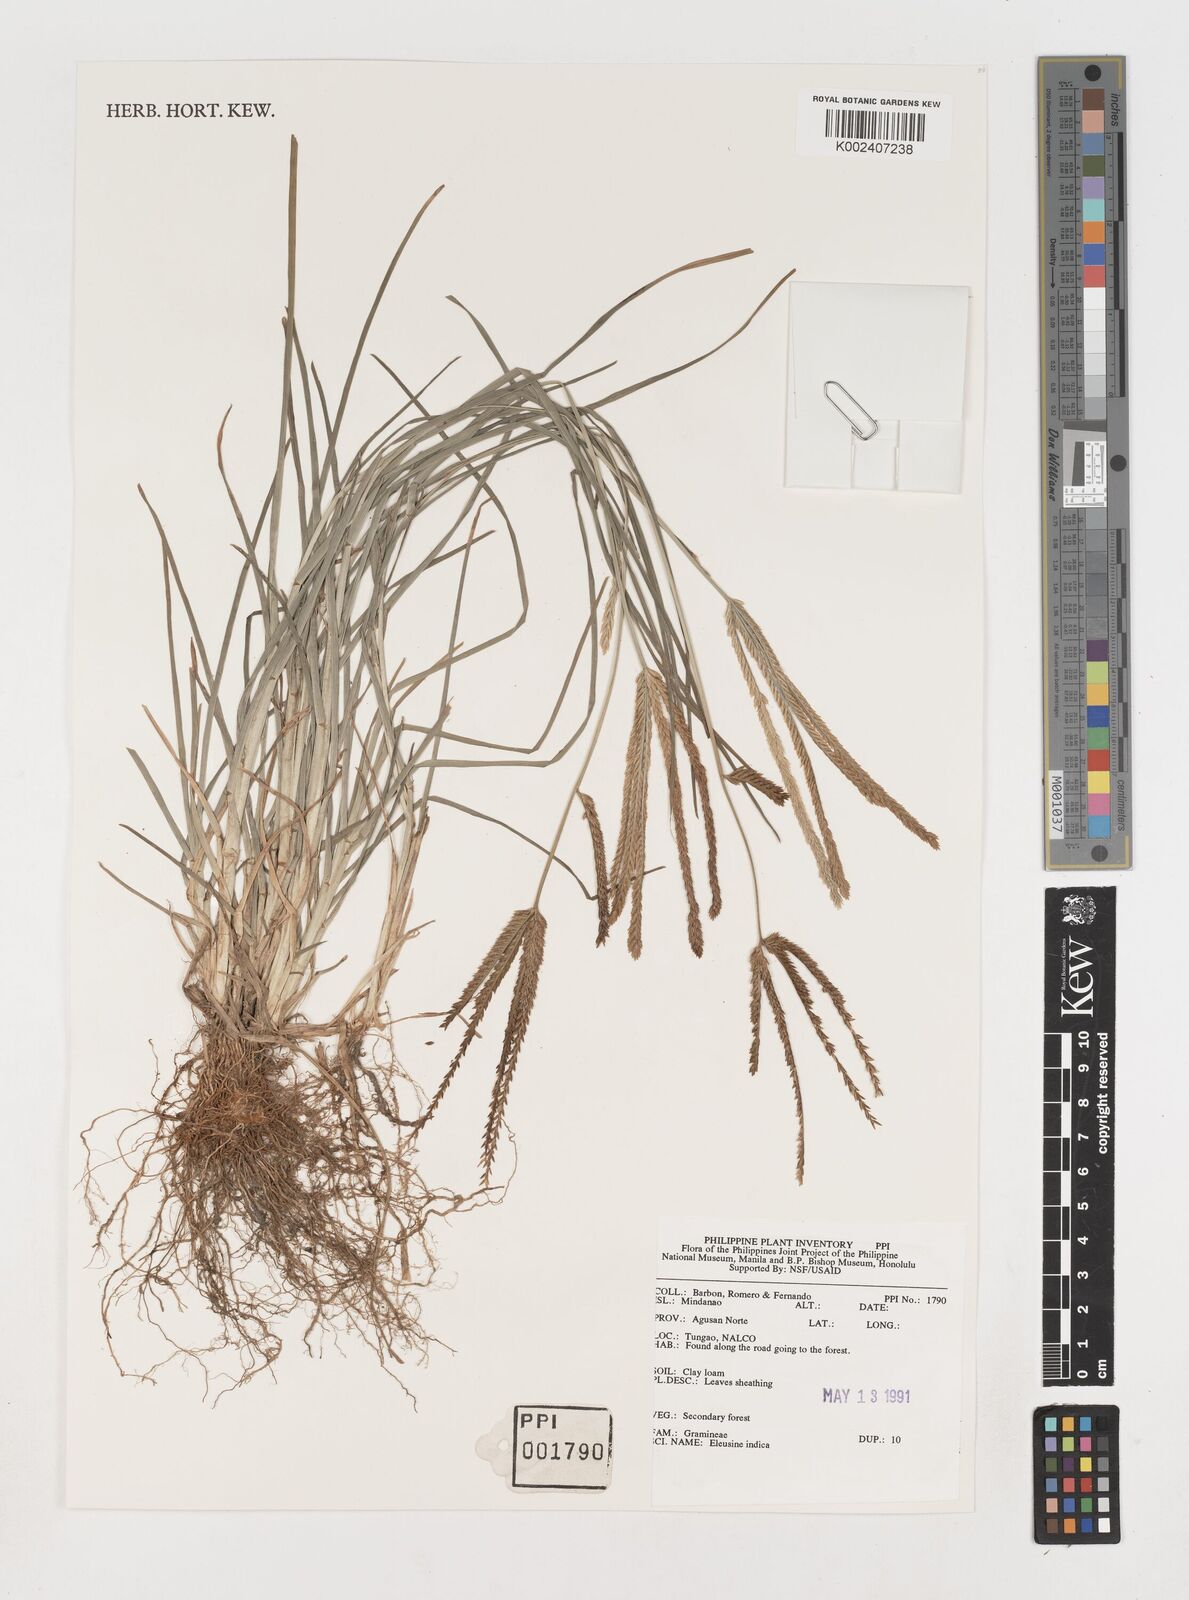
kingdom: Plantae
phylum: Tracheophyta
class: Liliopsida
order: Poales
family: Poaceae
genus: Eleusine
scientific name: Eleusine indica
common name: Yard-grass
